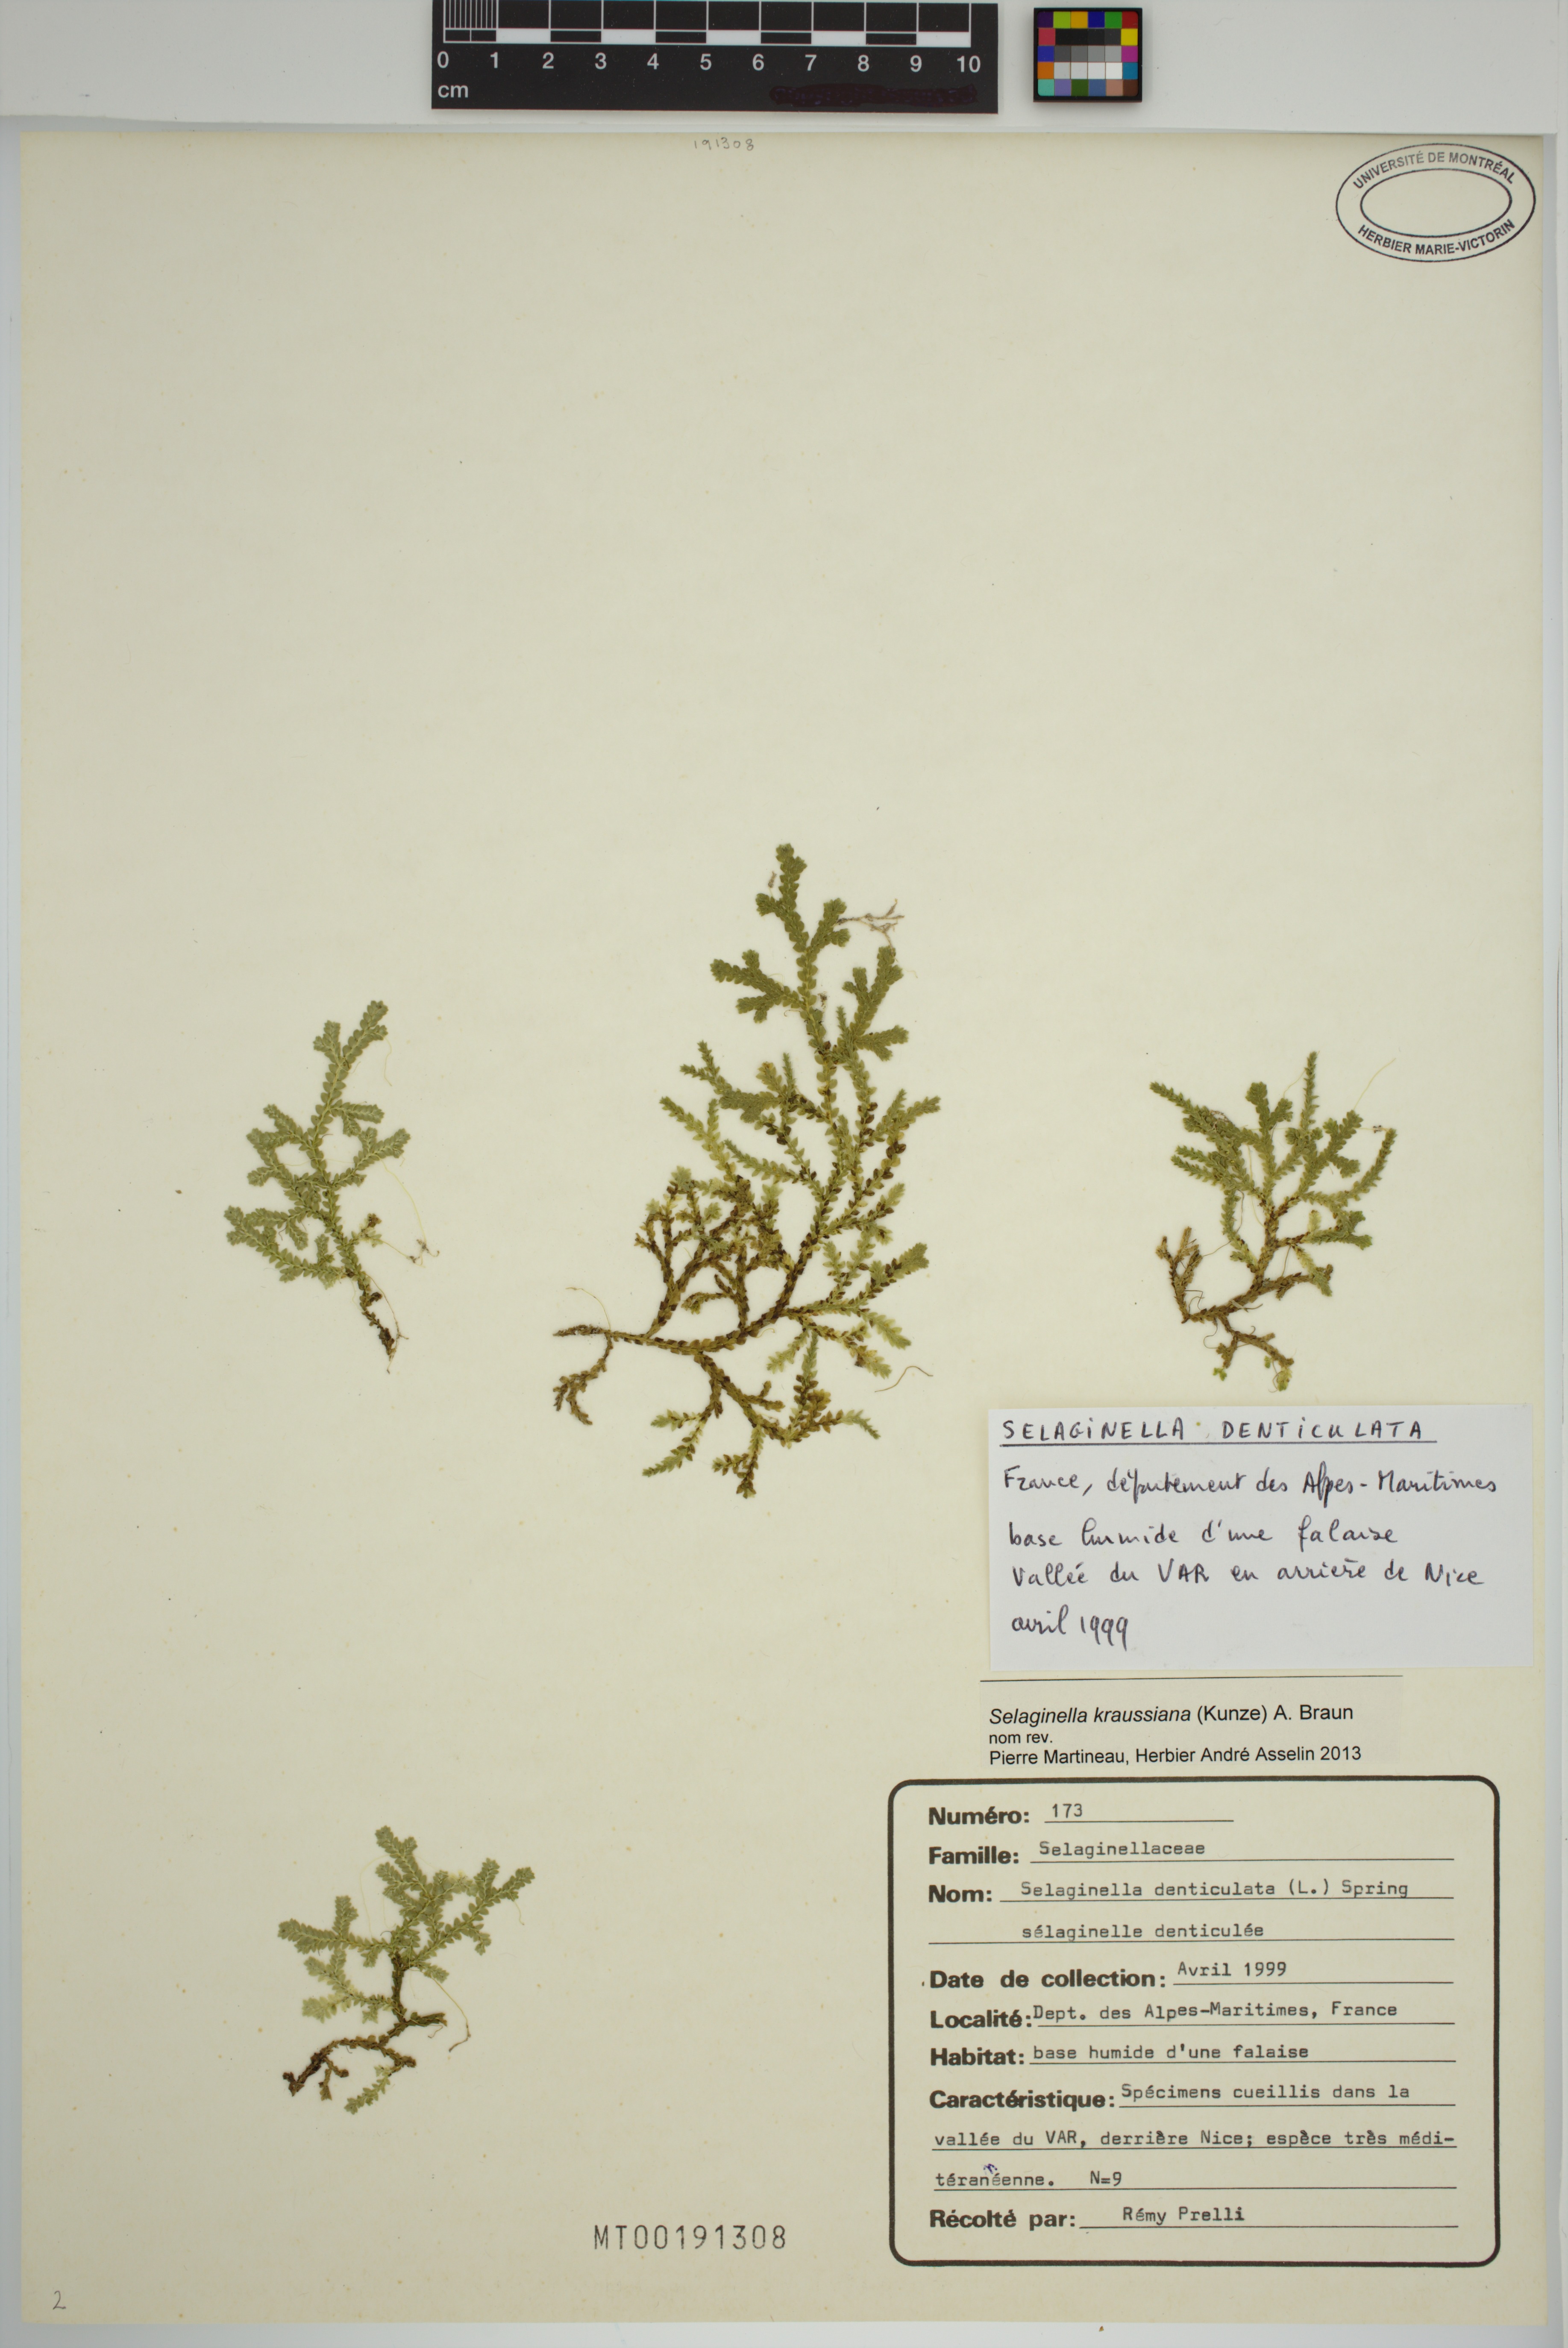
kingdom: Plantae
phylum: Tracheophyta
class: Lycopodiopsida
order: Selaginellales
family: Selaginellaceae
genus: Selaginella
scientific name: Selaginella kraussiana
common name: Krauss' spikemoss
